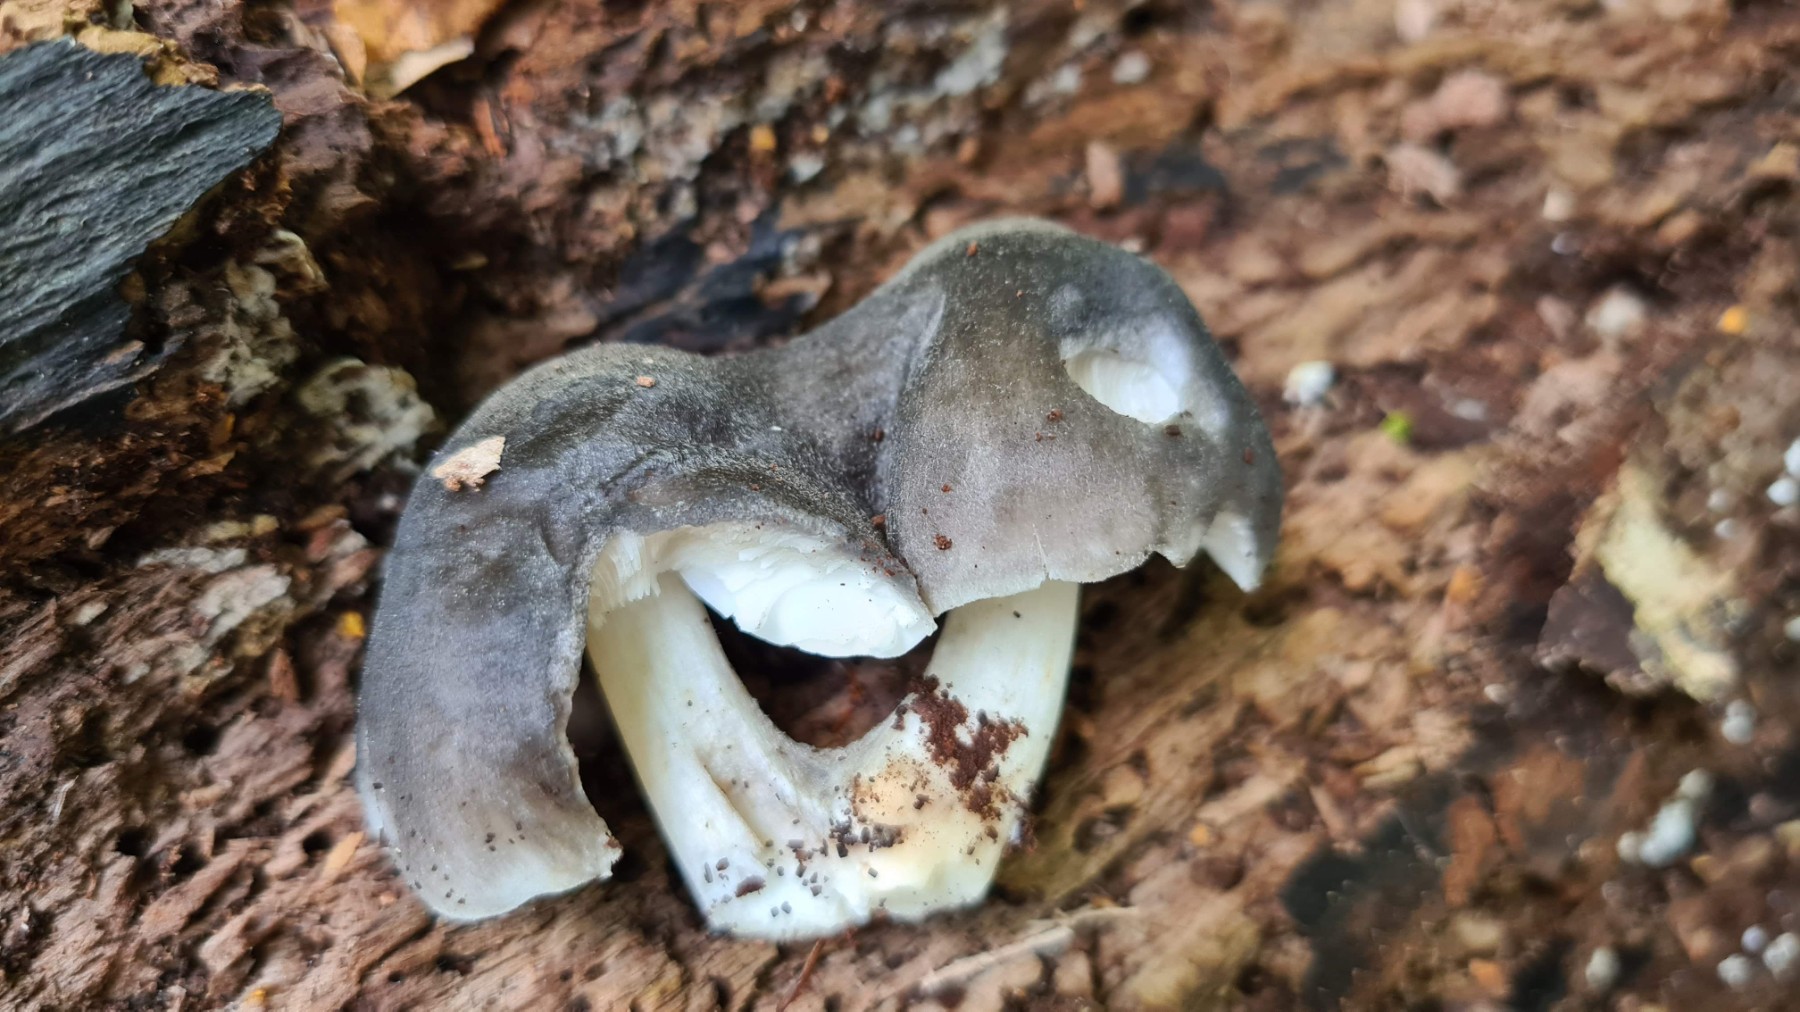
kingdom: Fungi
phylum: Basidiomycota
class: Agaricomycetes
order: Agaricales
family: Pluteaceae
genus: Pluteus
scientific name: Pluteus salicinus
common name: stiv skærmhat
